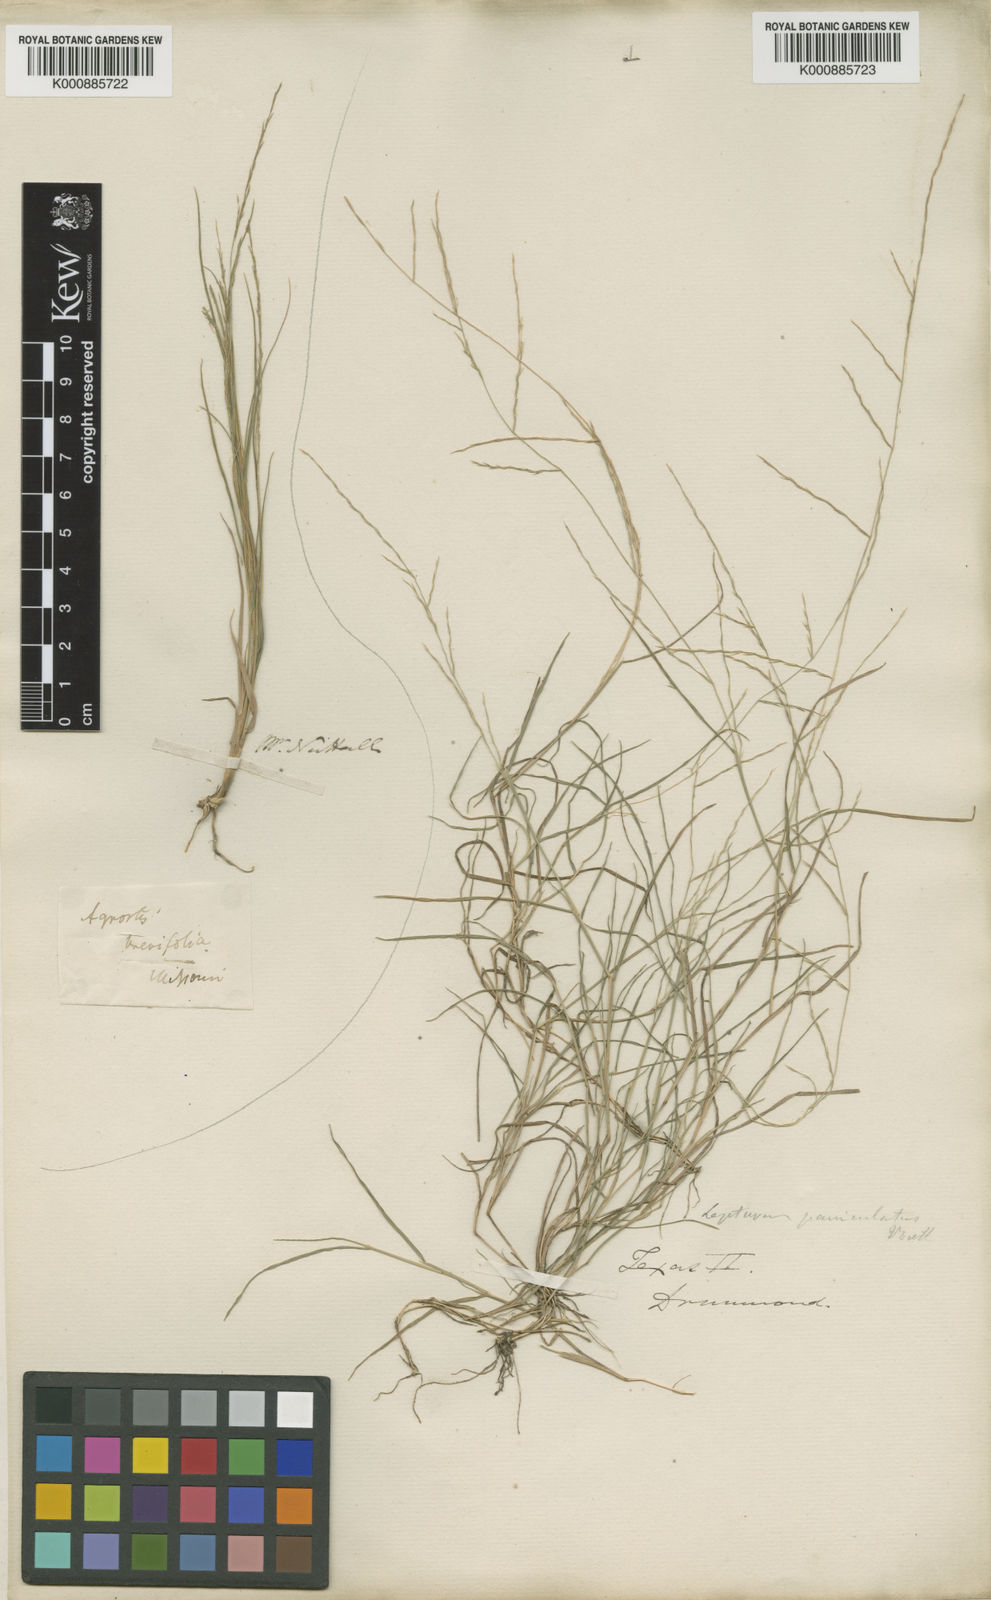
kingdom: Plantae
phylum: Tracheophyta
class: Liliopsida
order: Poales
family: Poaceae
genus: Muhlenbergia
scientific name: Muhlenbergia
